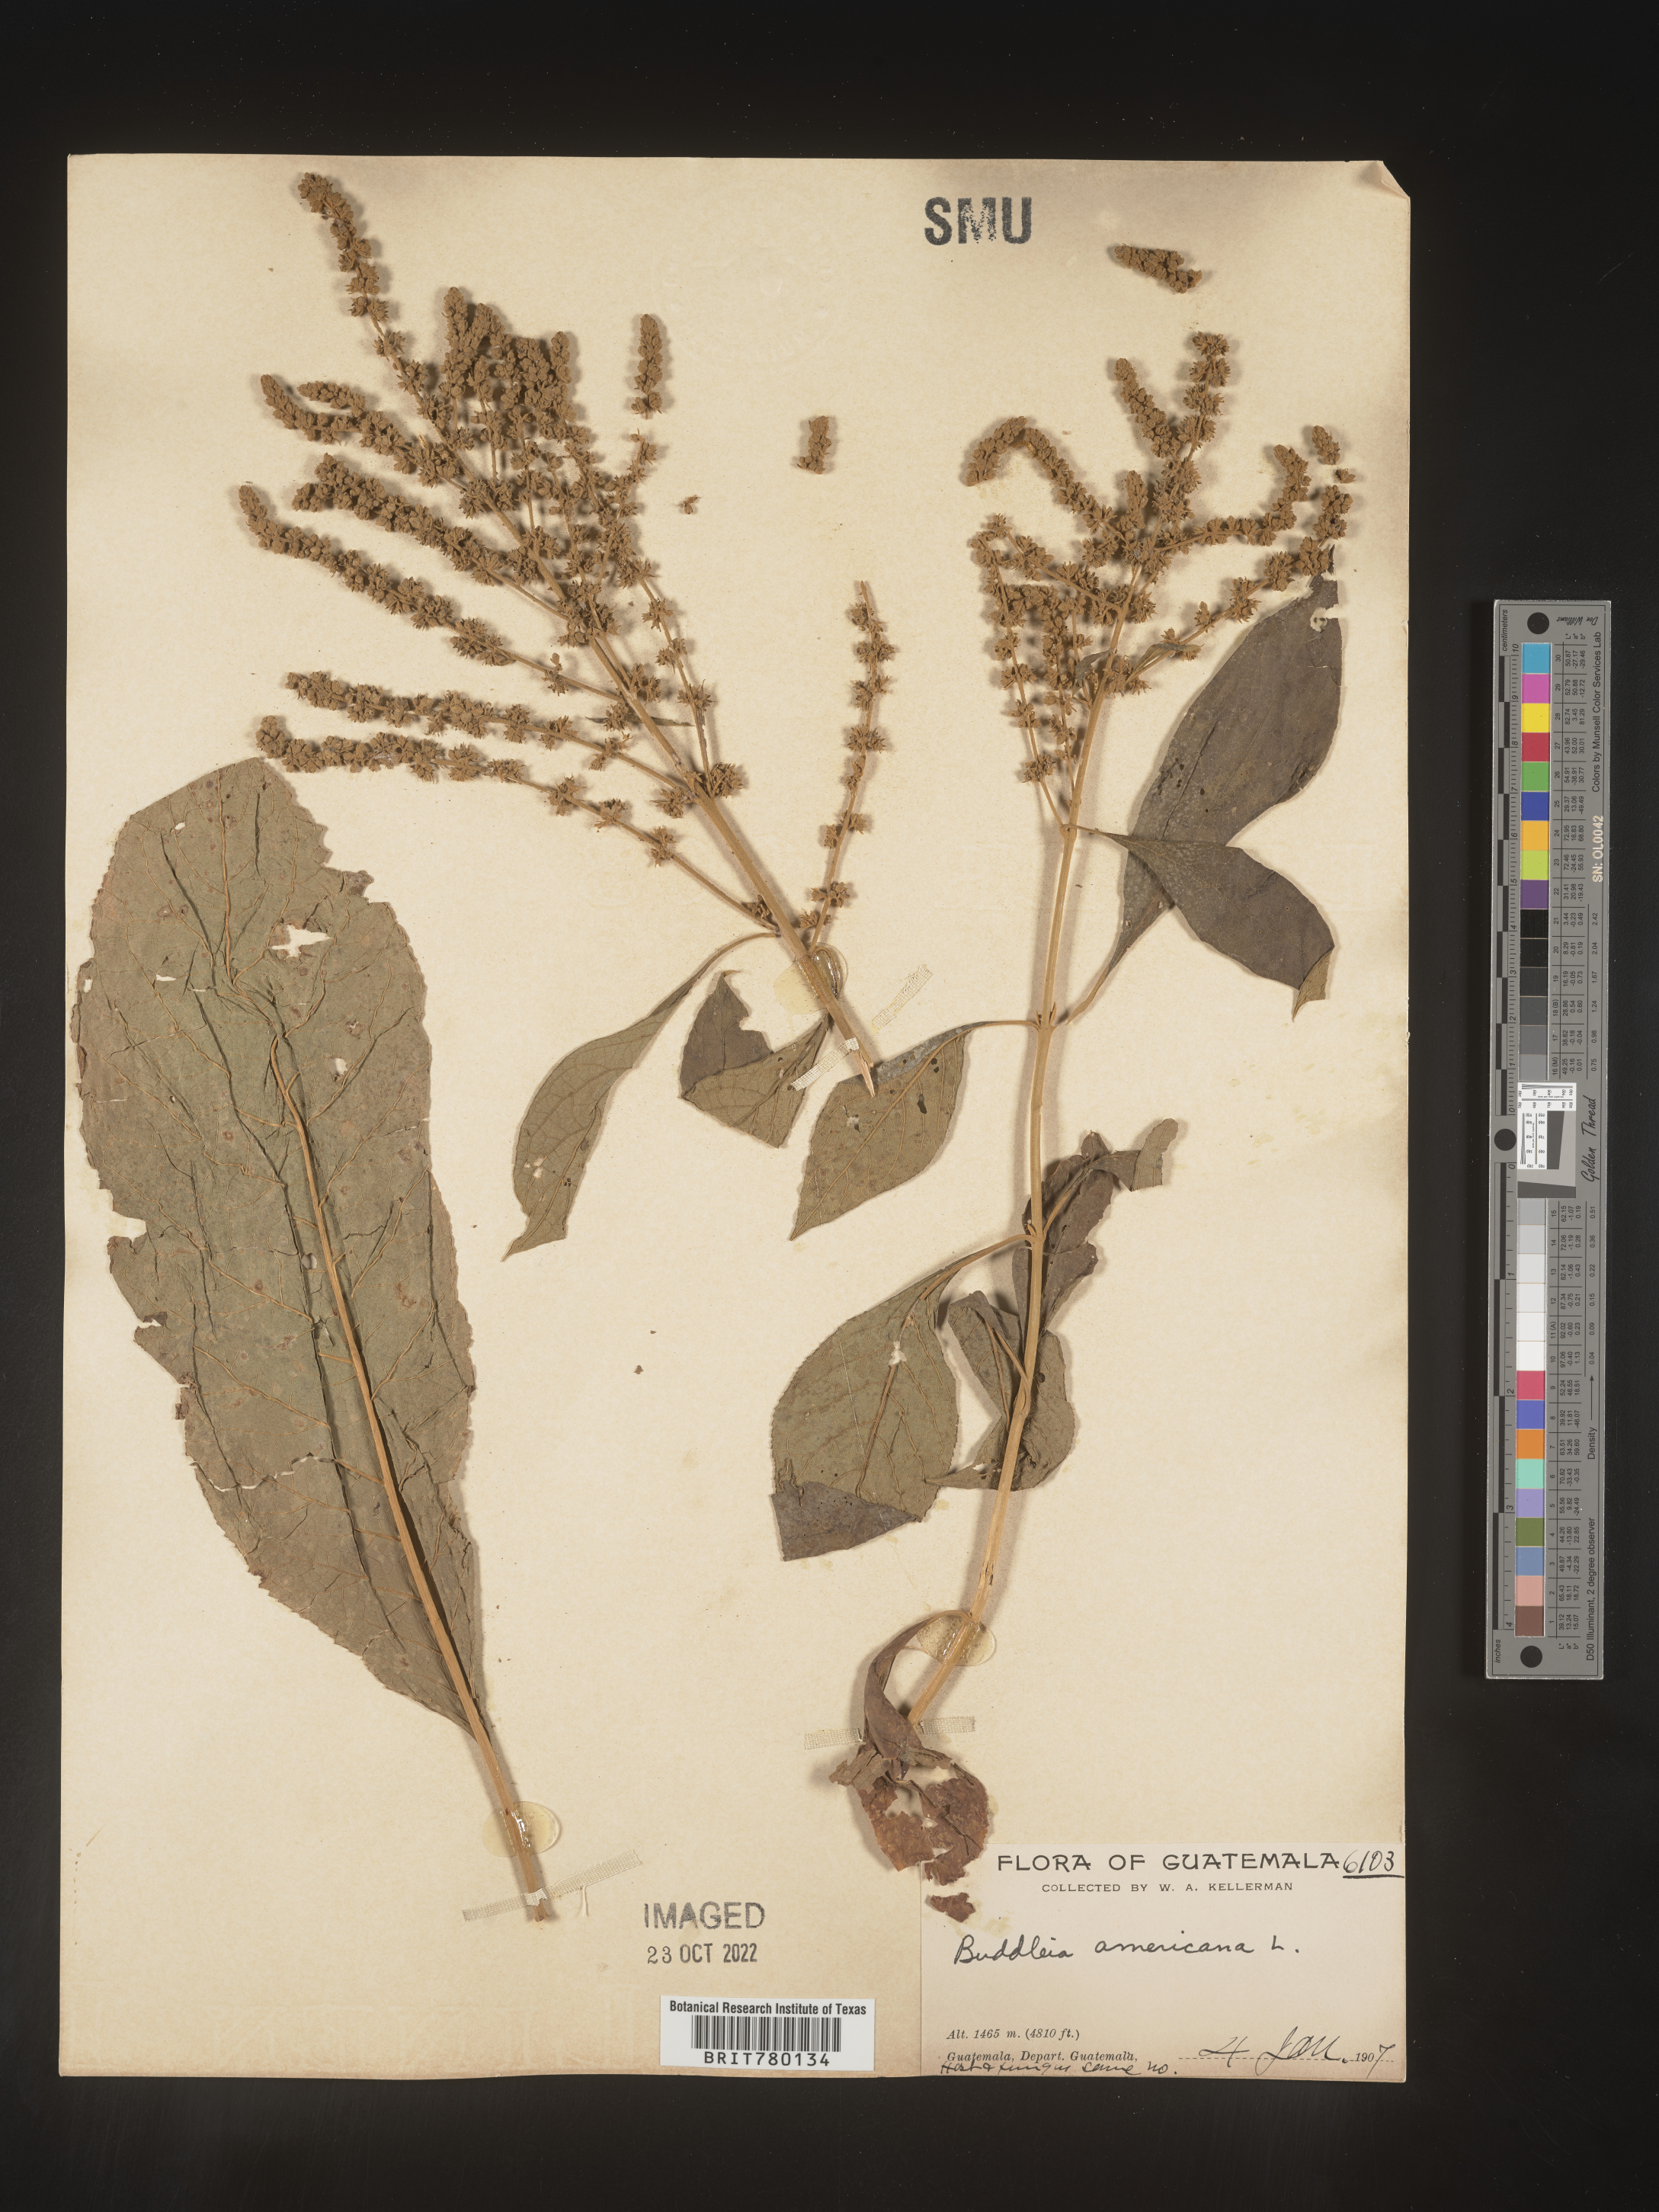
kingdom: Plantae
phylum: Tracheophyta
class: Magnoliopsida
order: Lamiales
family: Scrophulariaceae
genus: Buddleja
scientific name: Buddleja
